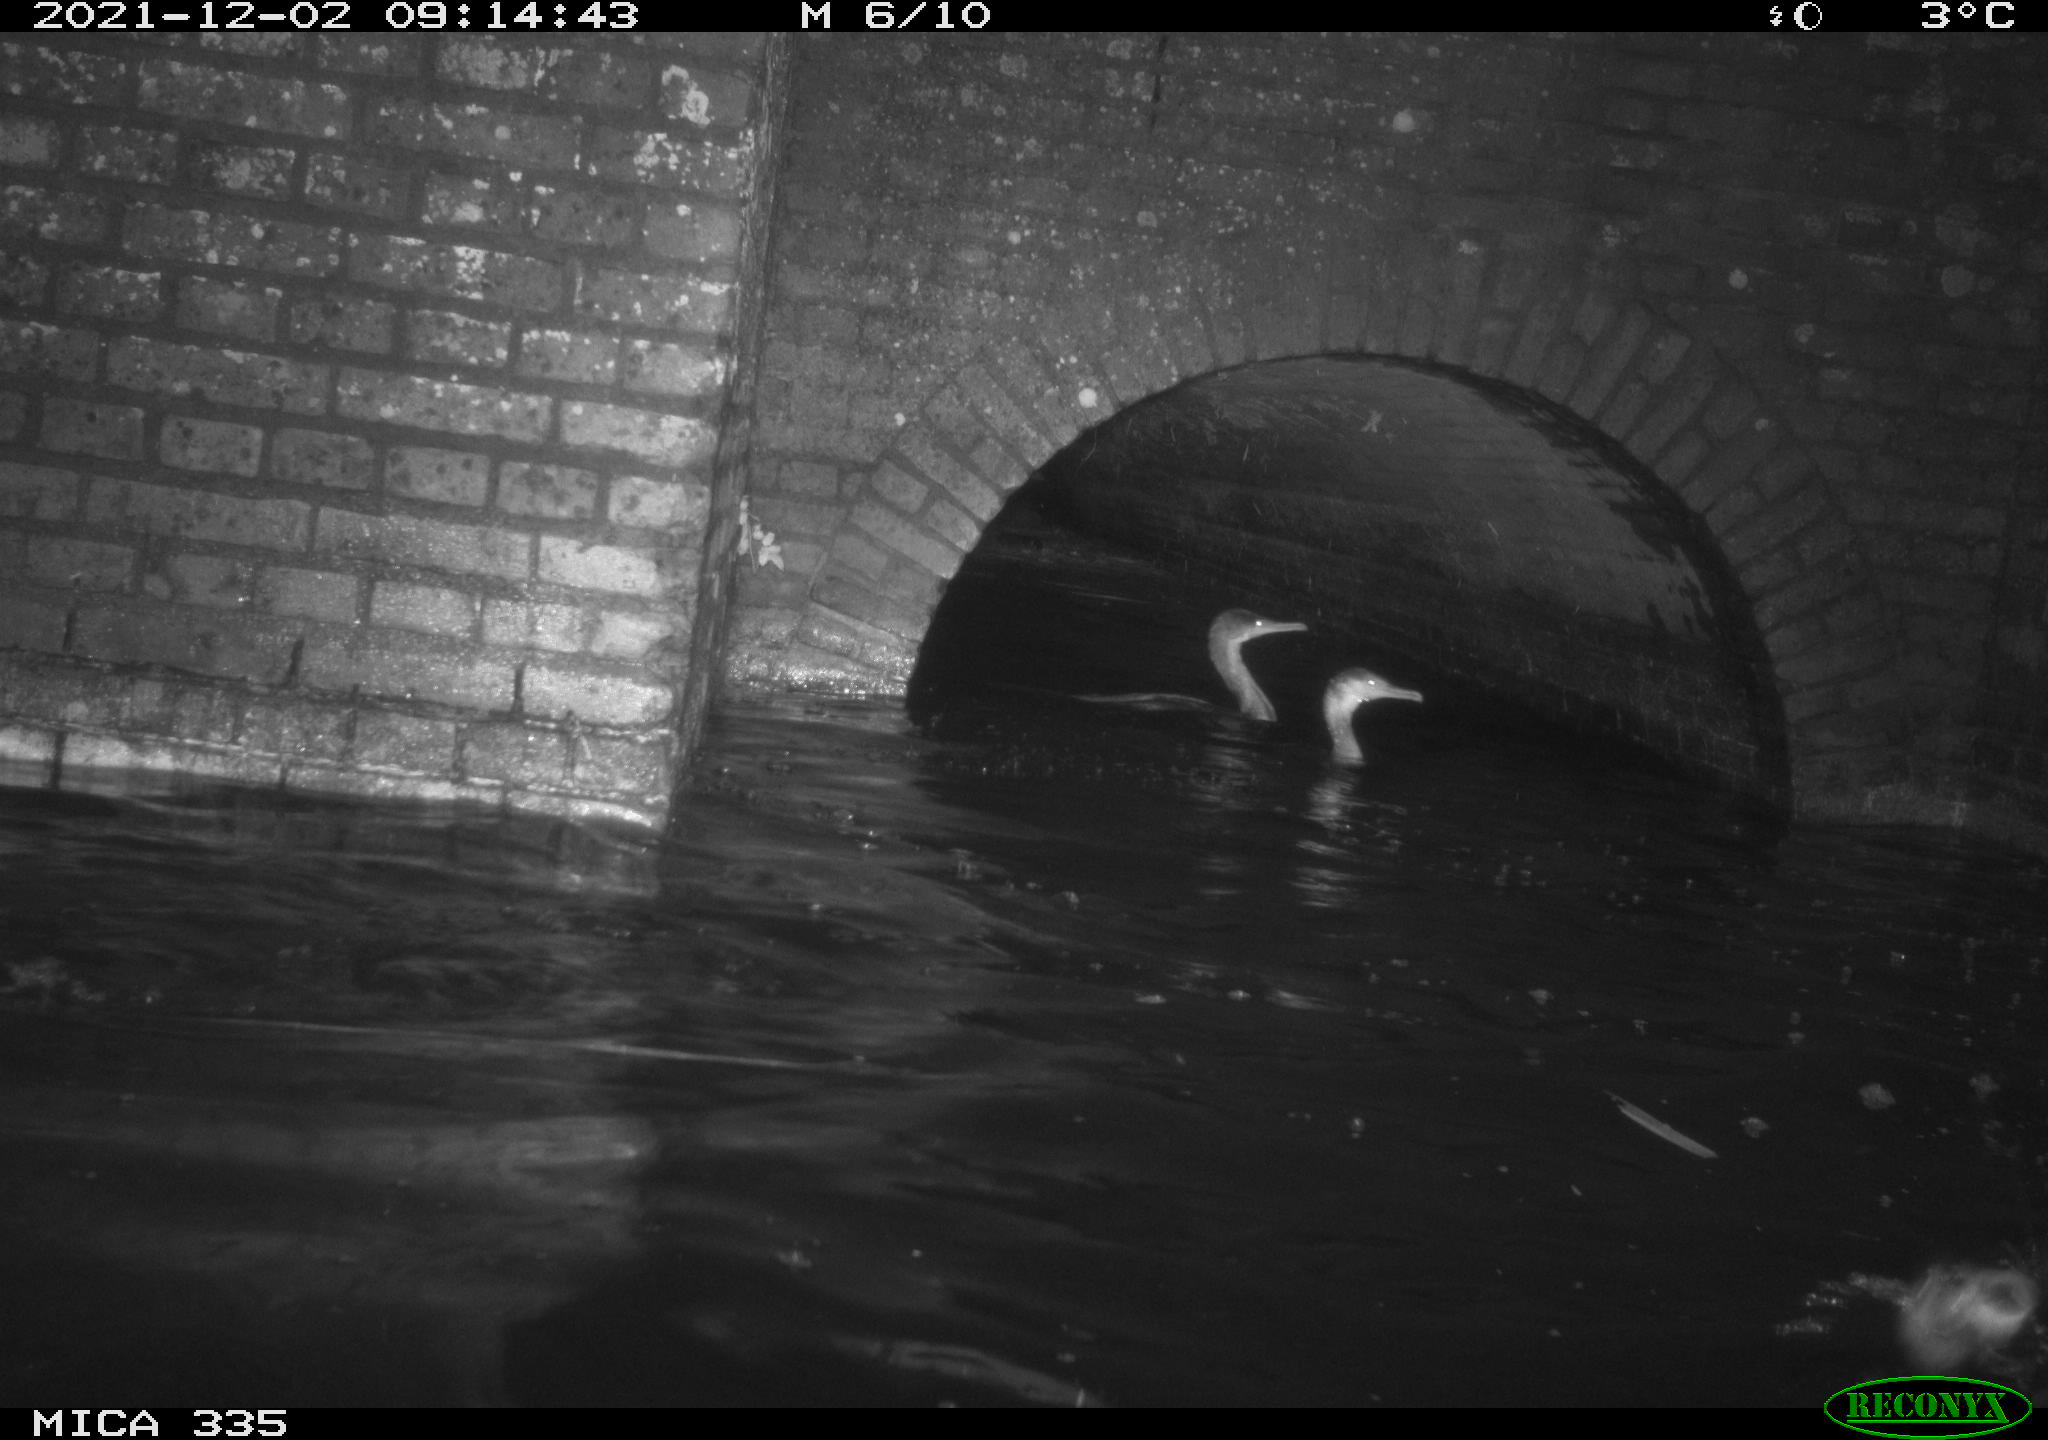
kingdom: Animalia
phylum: Chordata
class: Aves
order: Suliformes
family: Phalacrocoracidae
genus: Phalacrocorax
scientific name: Phalacrocorax carbo
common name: Great cormorant
